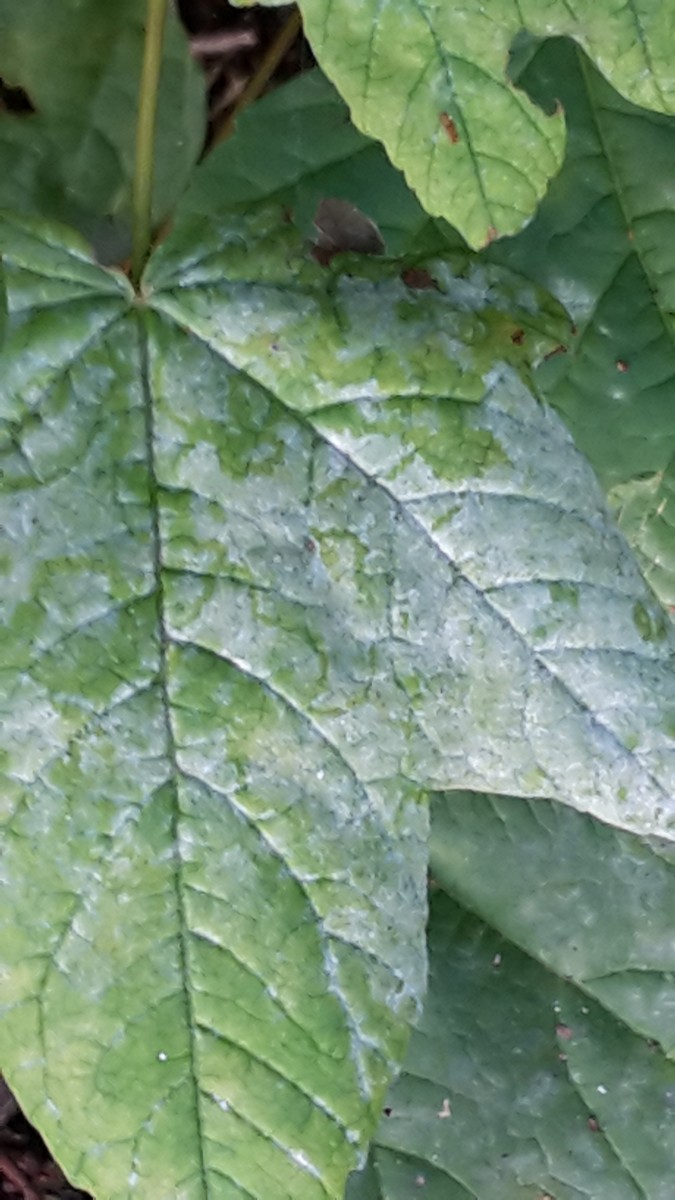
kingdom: Fungi
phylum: Ascomycota
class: Leotiomycetes
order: Helotiales
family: Erysiphaceae
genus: Sawadaea
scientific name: Sawadaea bicornis
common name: Maple mildew
